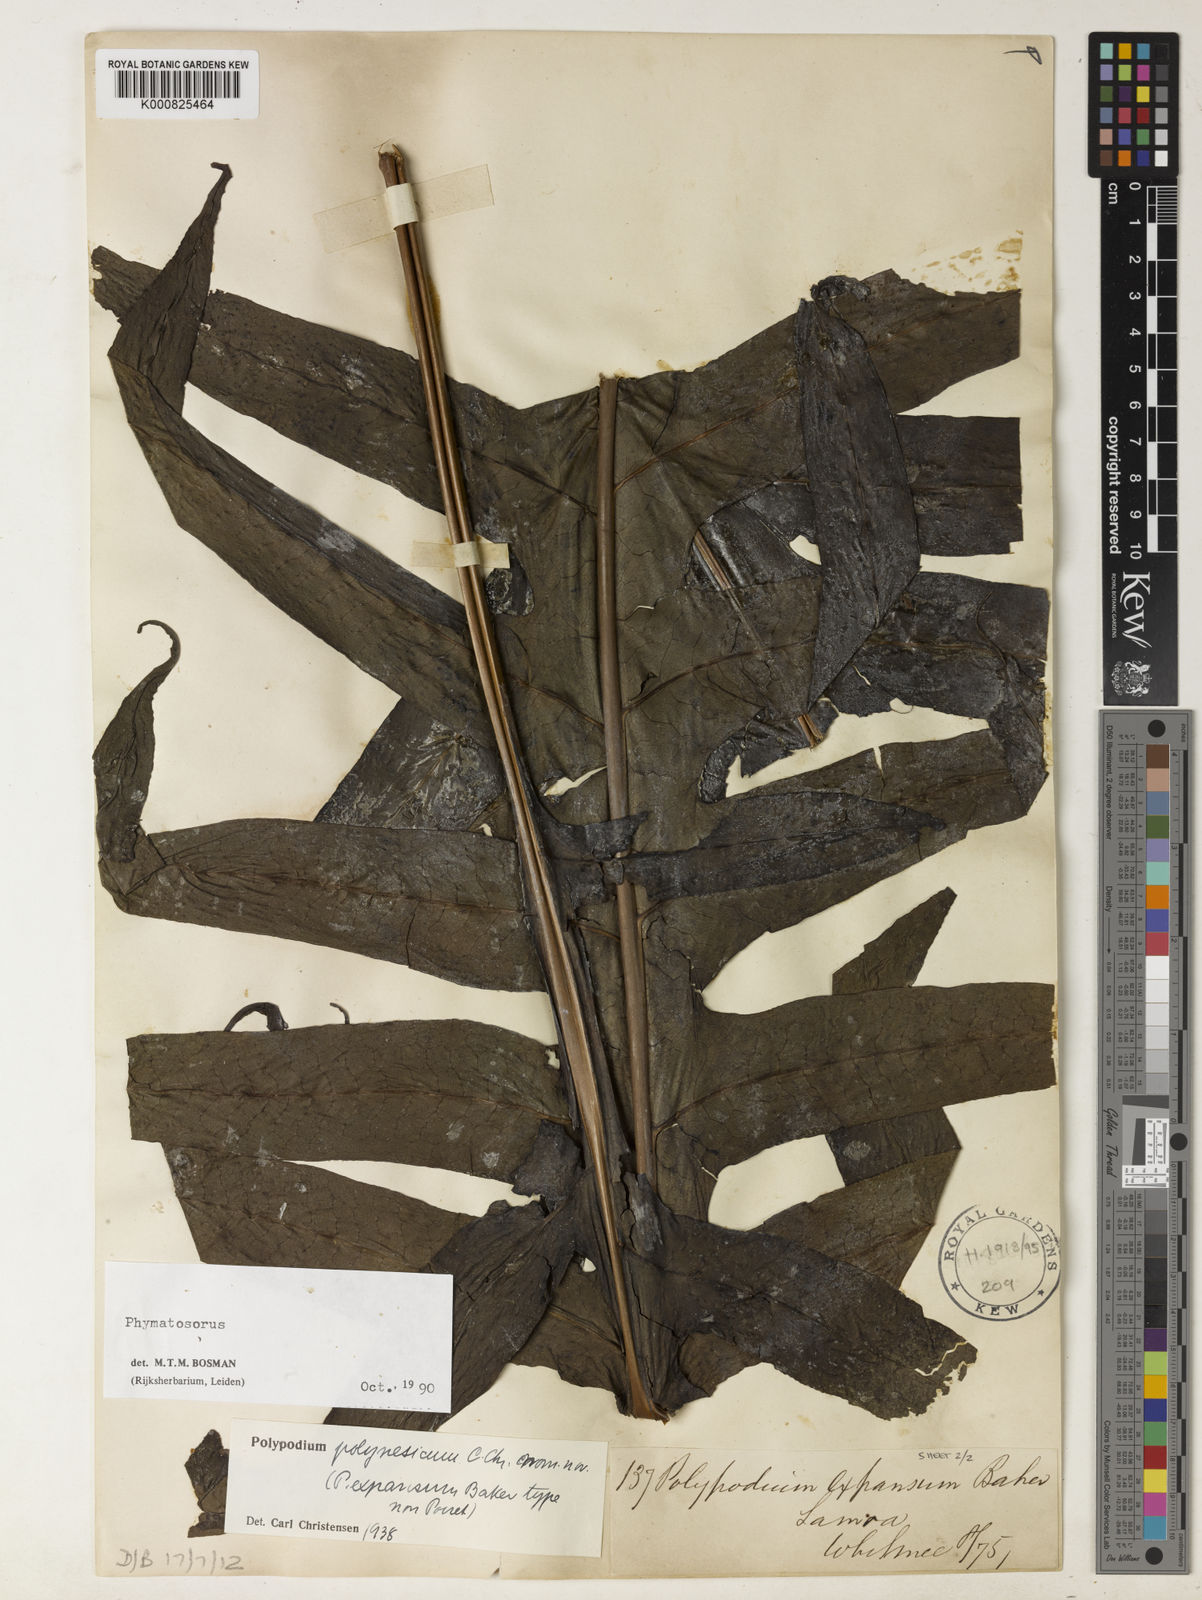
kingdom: Plantae
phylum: Tracheophyta
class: Polypodiopsida
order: Polypodiales
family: Polypodiaceae
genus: Microsorum
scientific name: Microsorum commutatum
